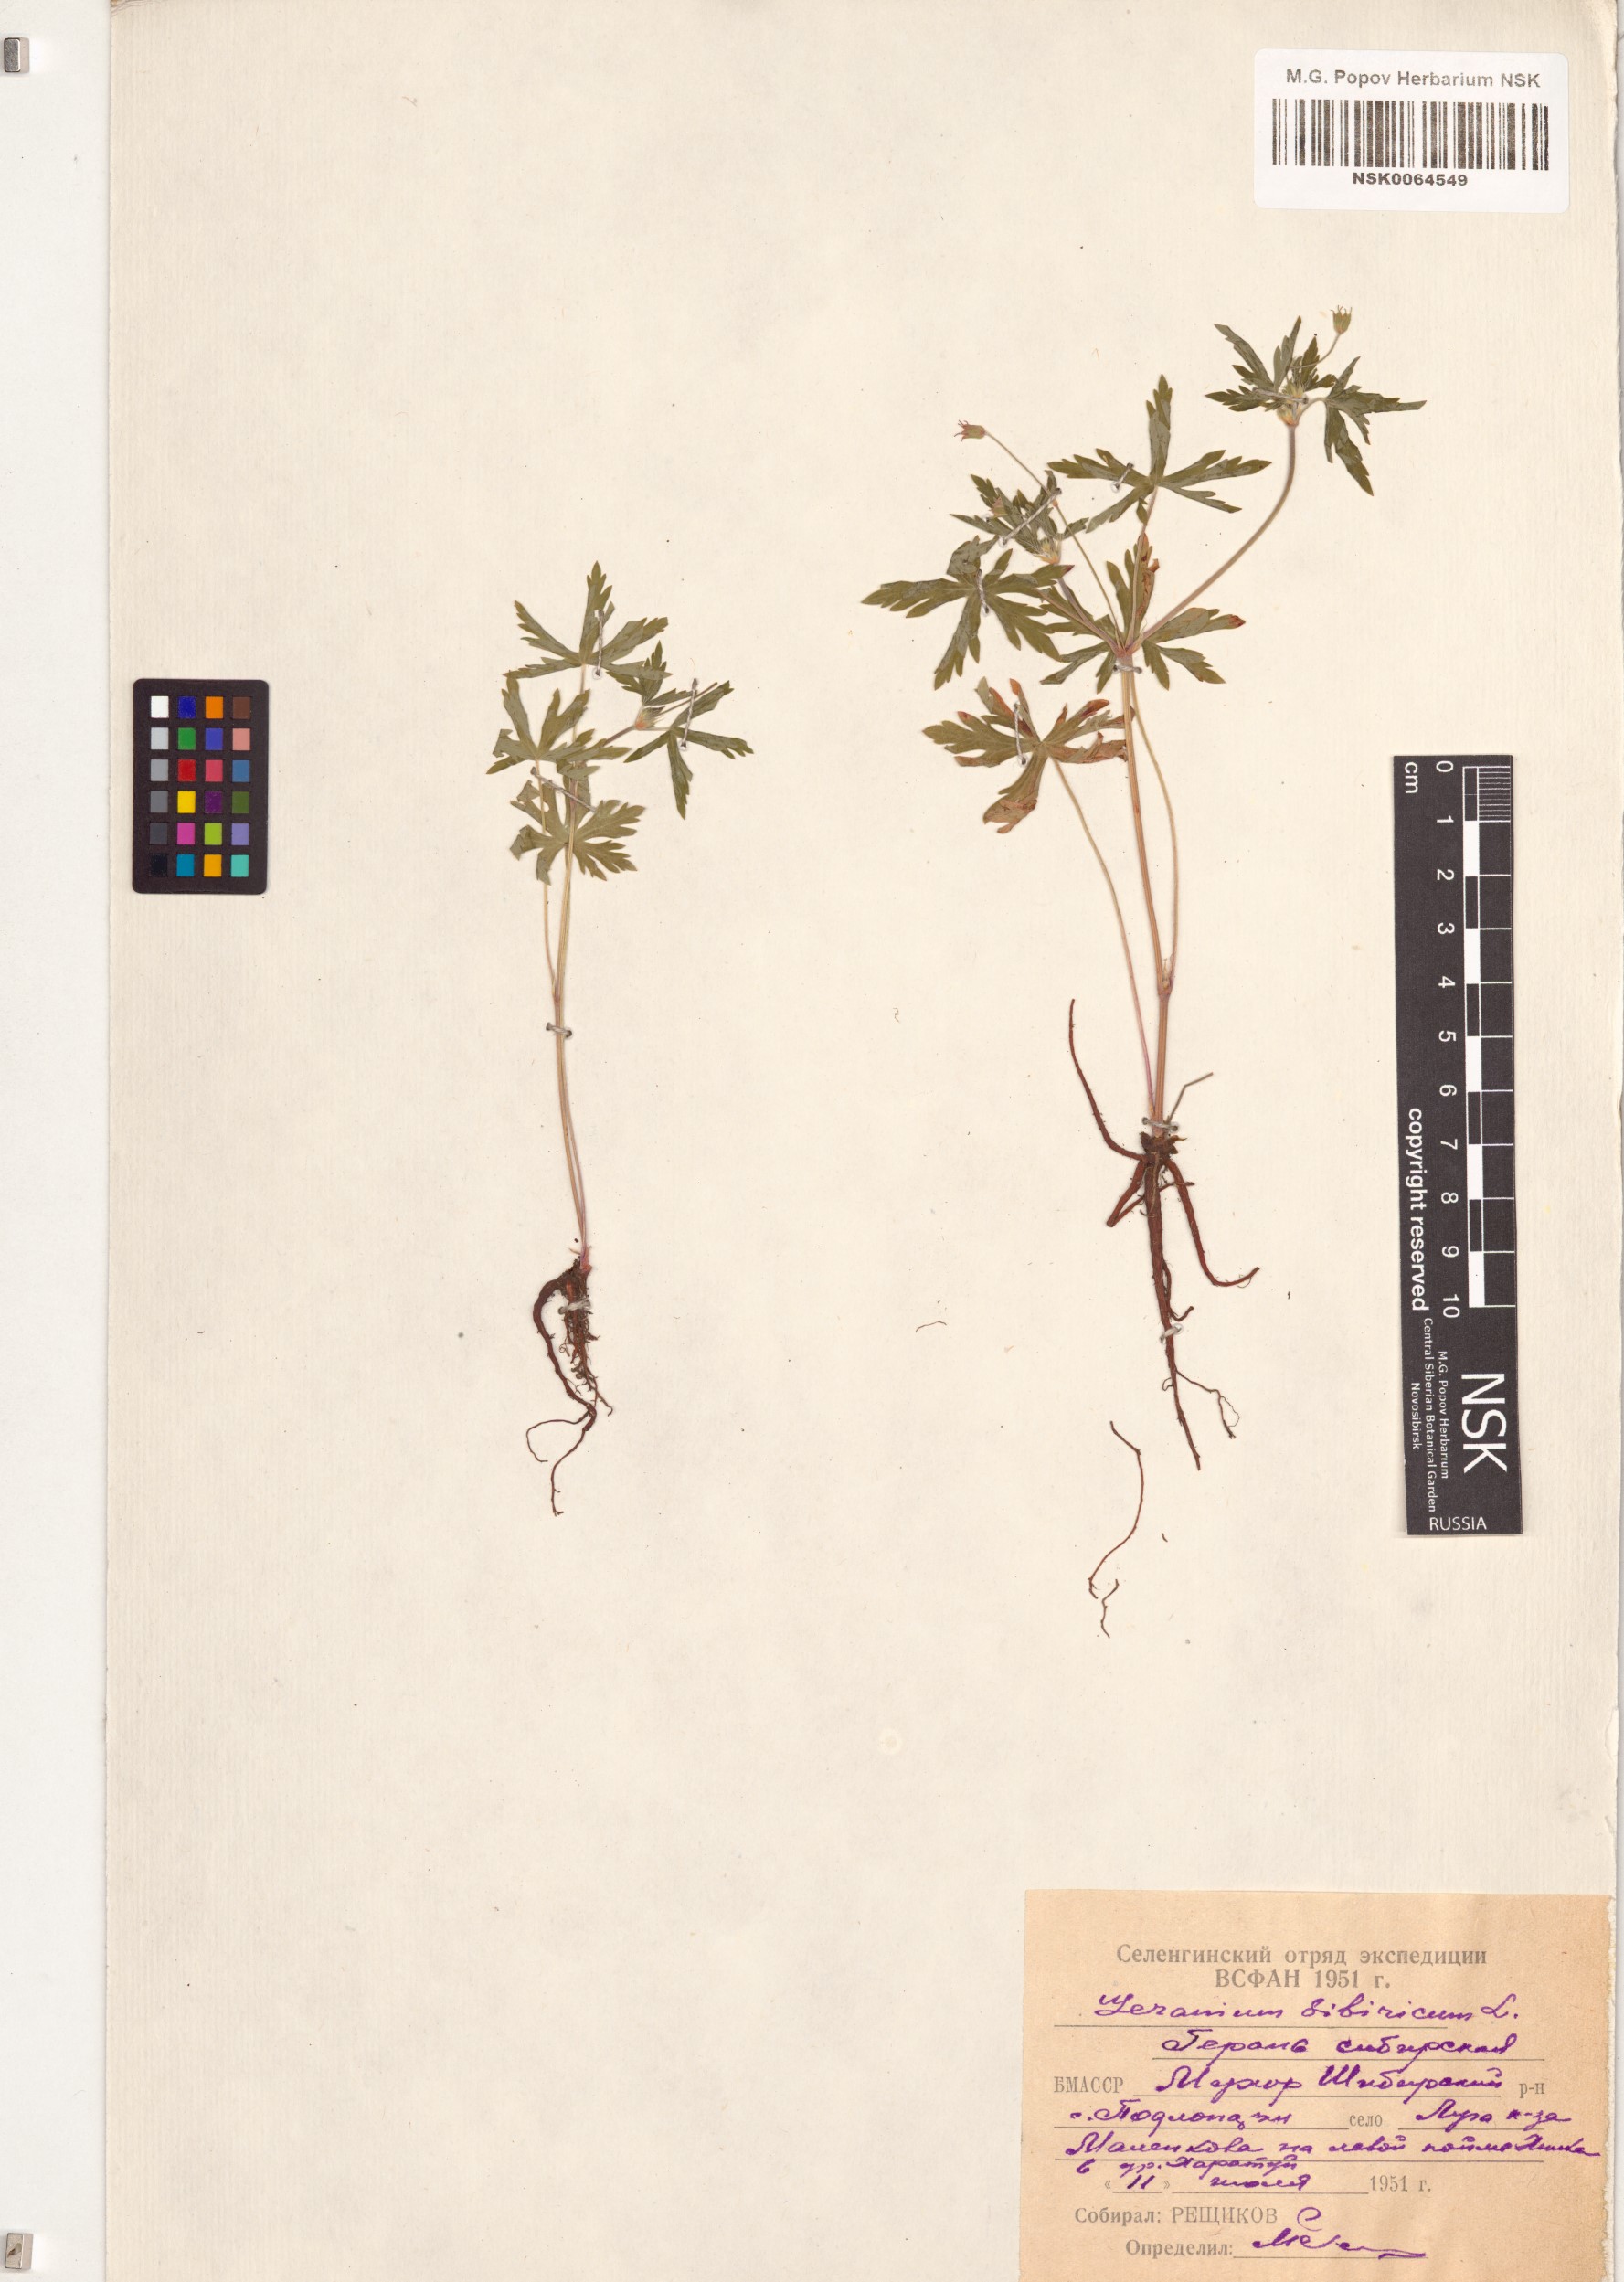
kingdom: Plantae
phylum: Tracheophyta
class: Magnoliopsida
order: Geraniales
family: Geraniaceae
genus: Geranium
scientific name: Geranium sibiricum
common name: Siberian crane's-bill
